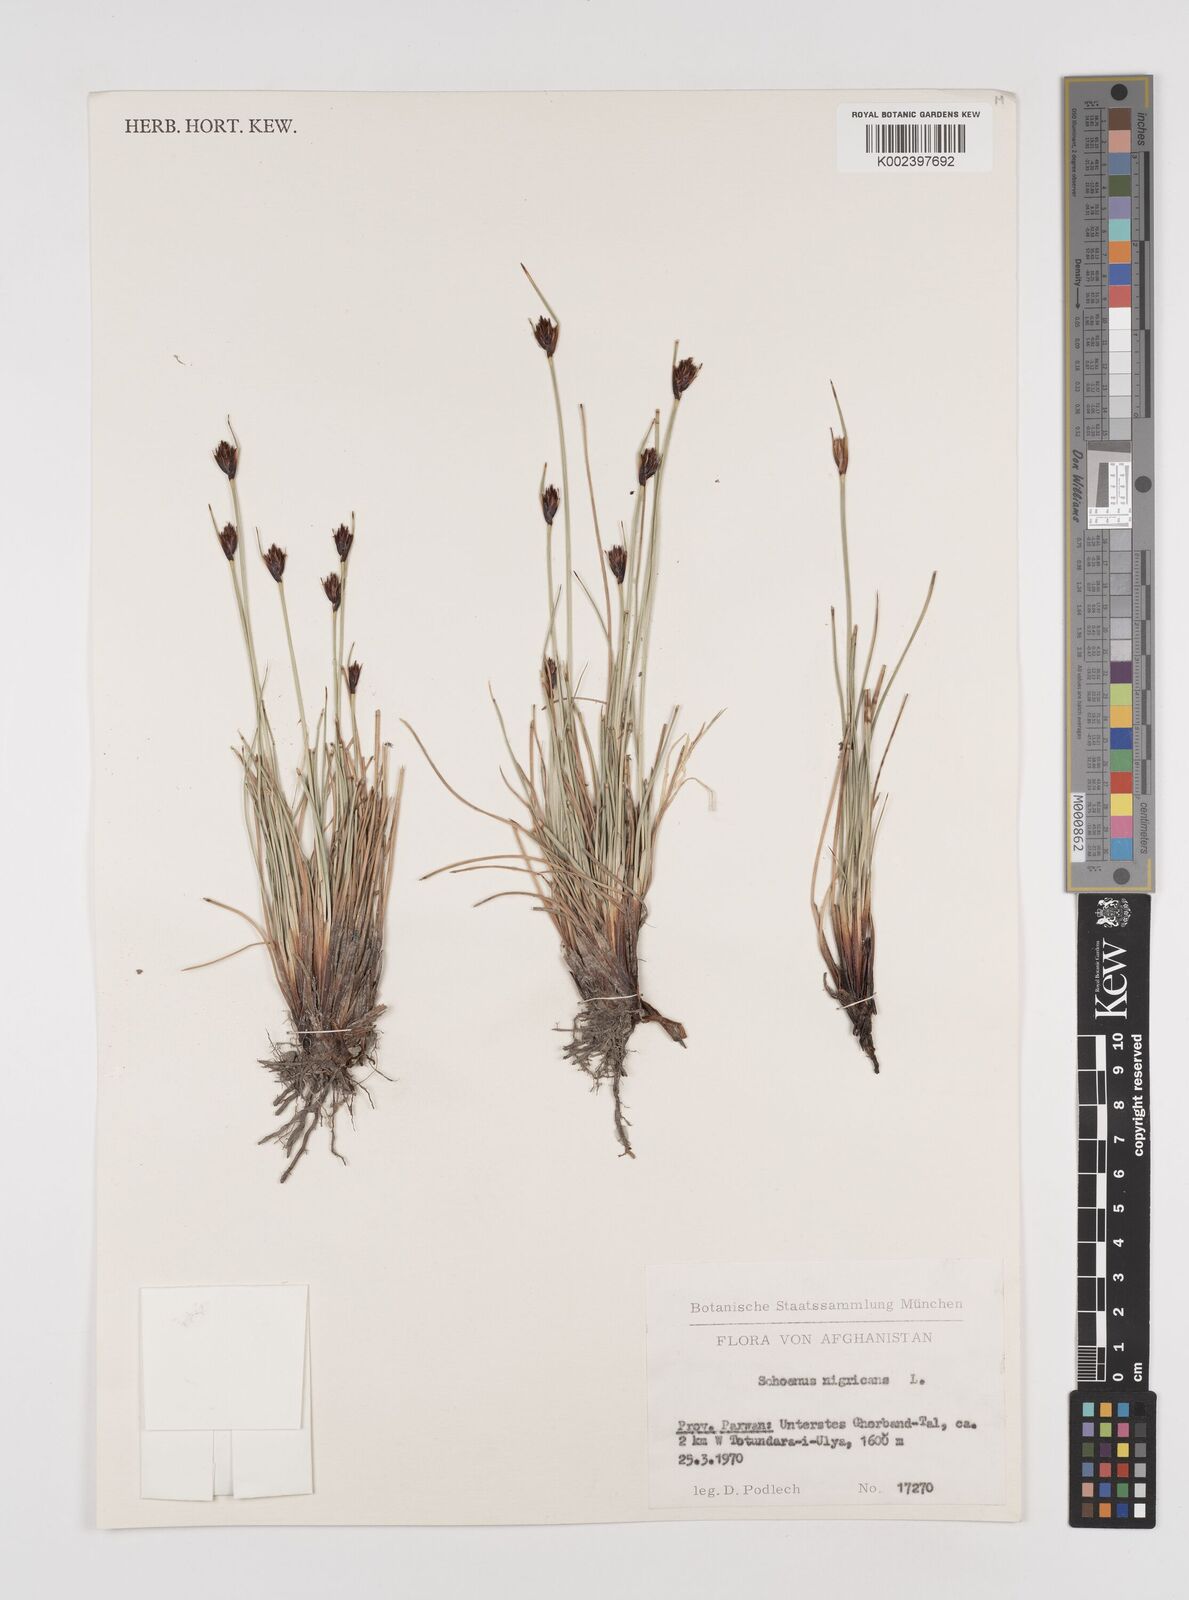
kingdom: Plantae
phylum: Tracheophyta
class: Liliopsida
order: Poales
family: Cyperaceae
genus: Schoenus
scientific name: Schoenus nigricans
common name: Black bog-rush
